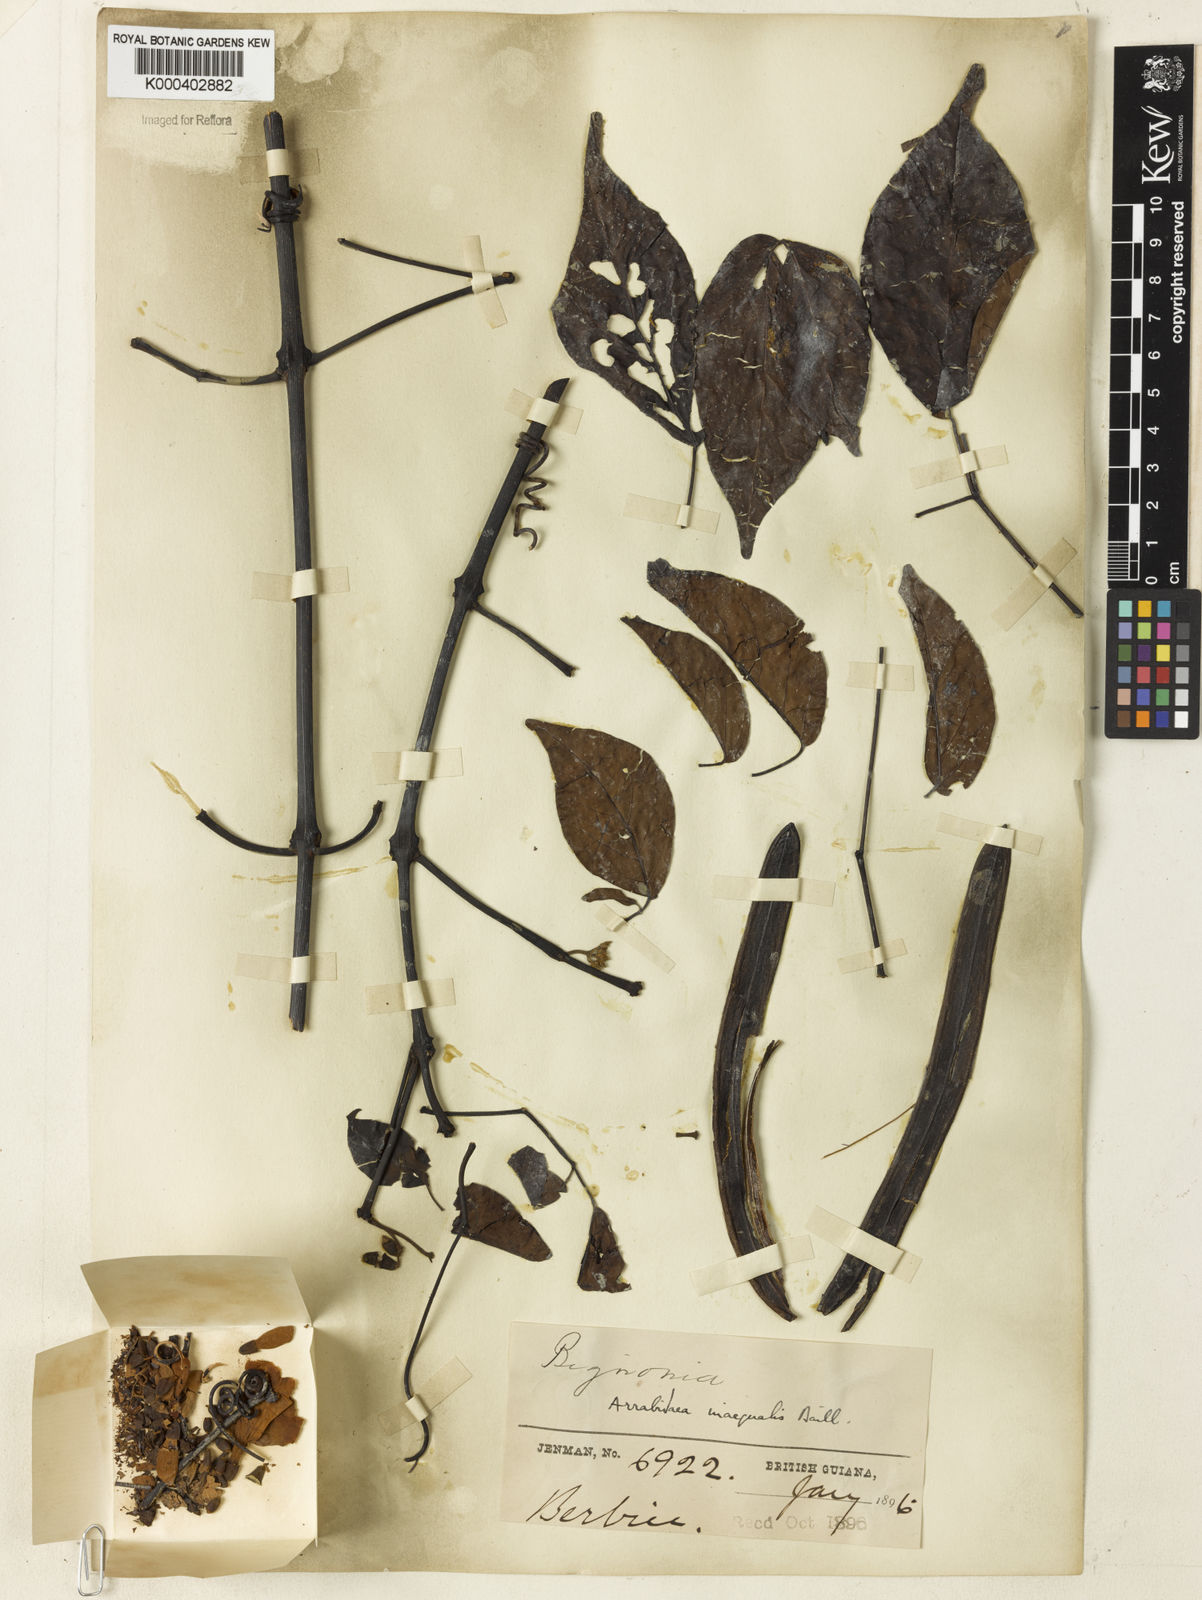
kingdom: Plantae
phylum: Tracheophyta
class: Magnoliopsida
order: Lamiales
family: Bignoniaceae
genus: Cuspidaria
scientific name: Cuspidaria inaequalis
